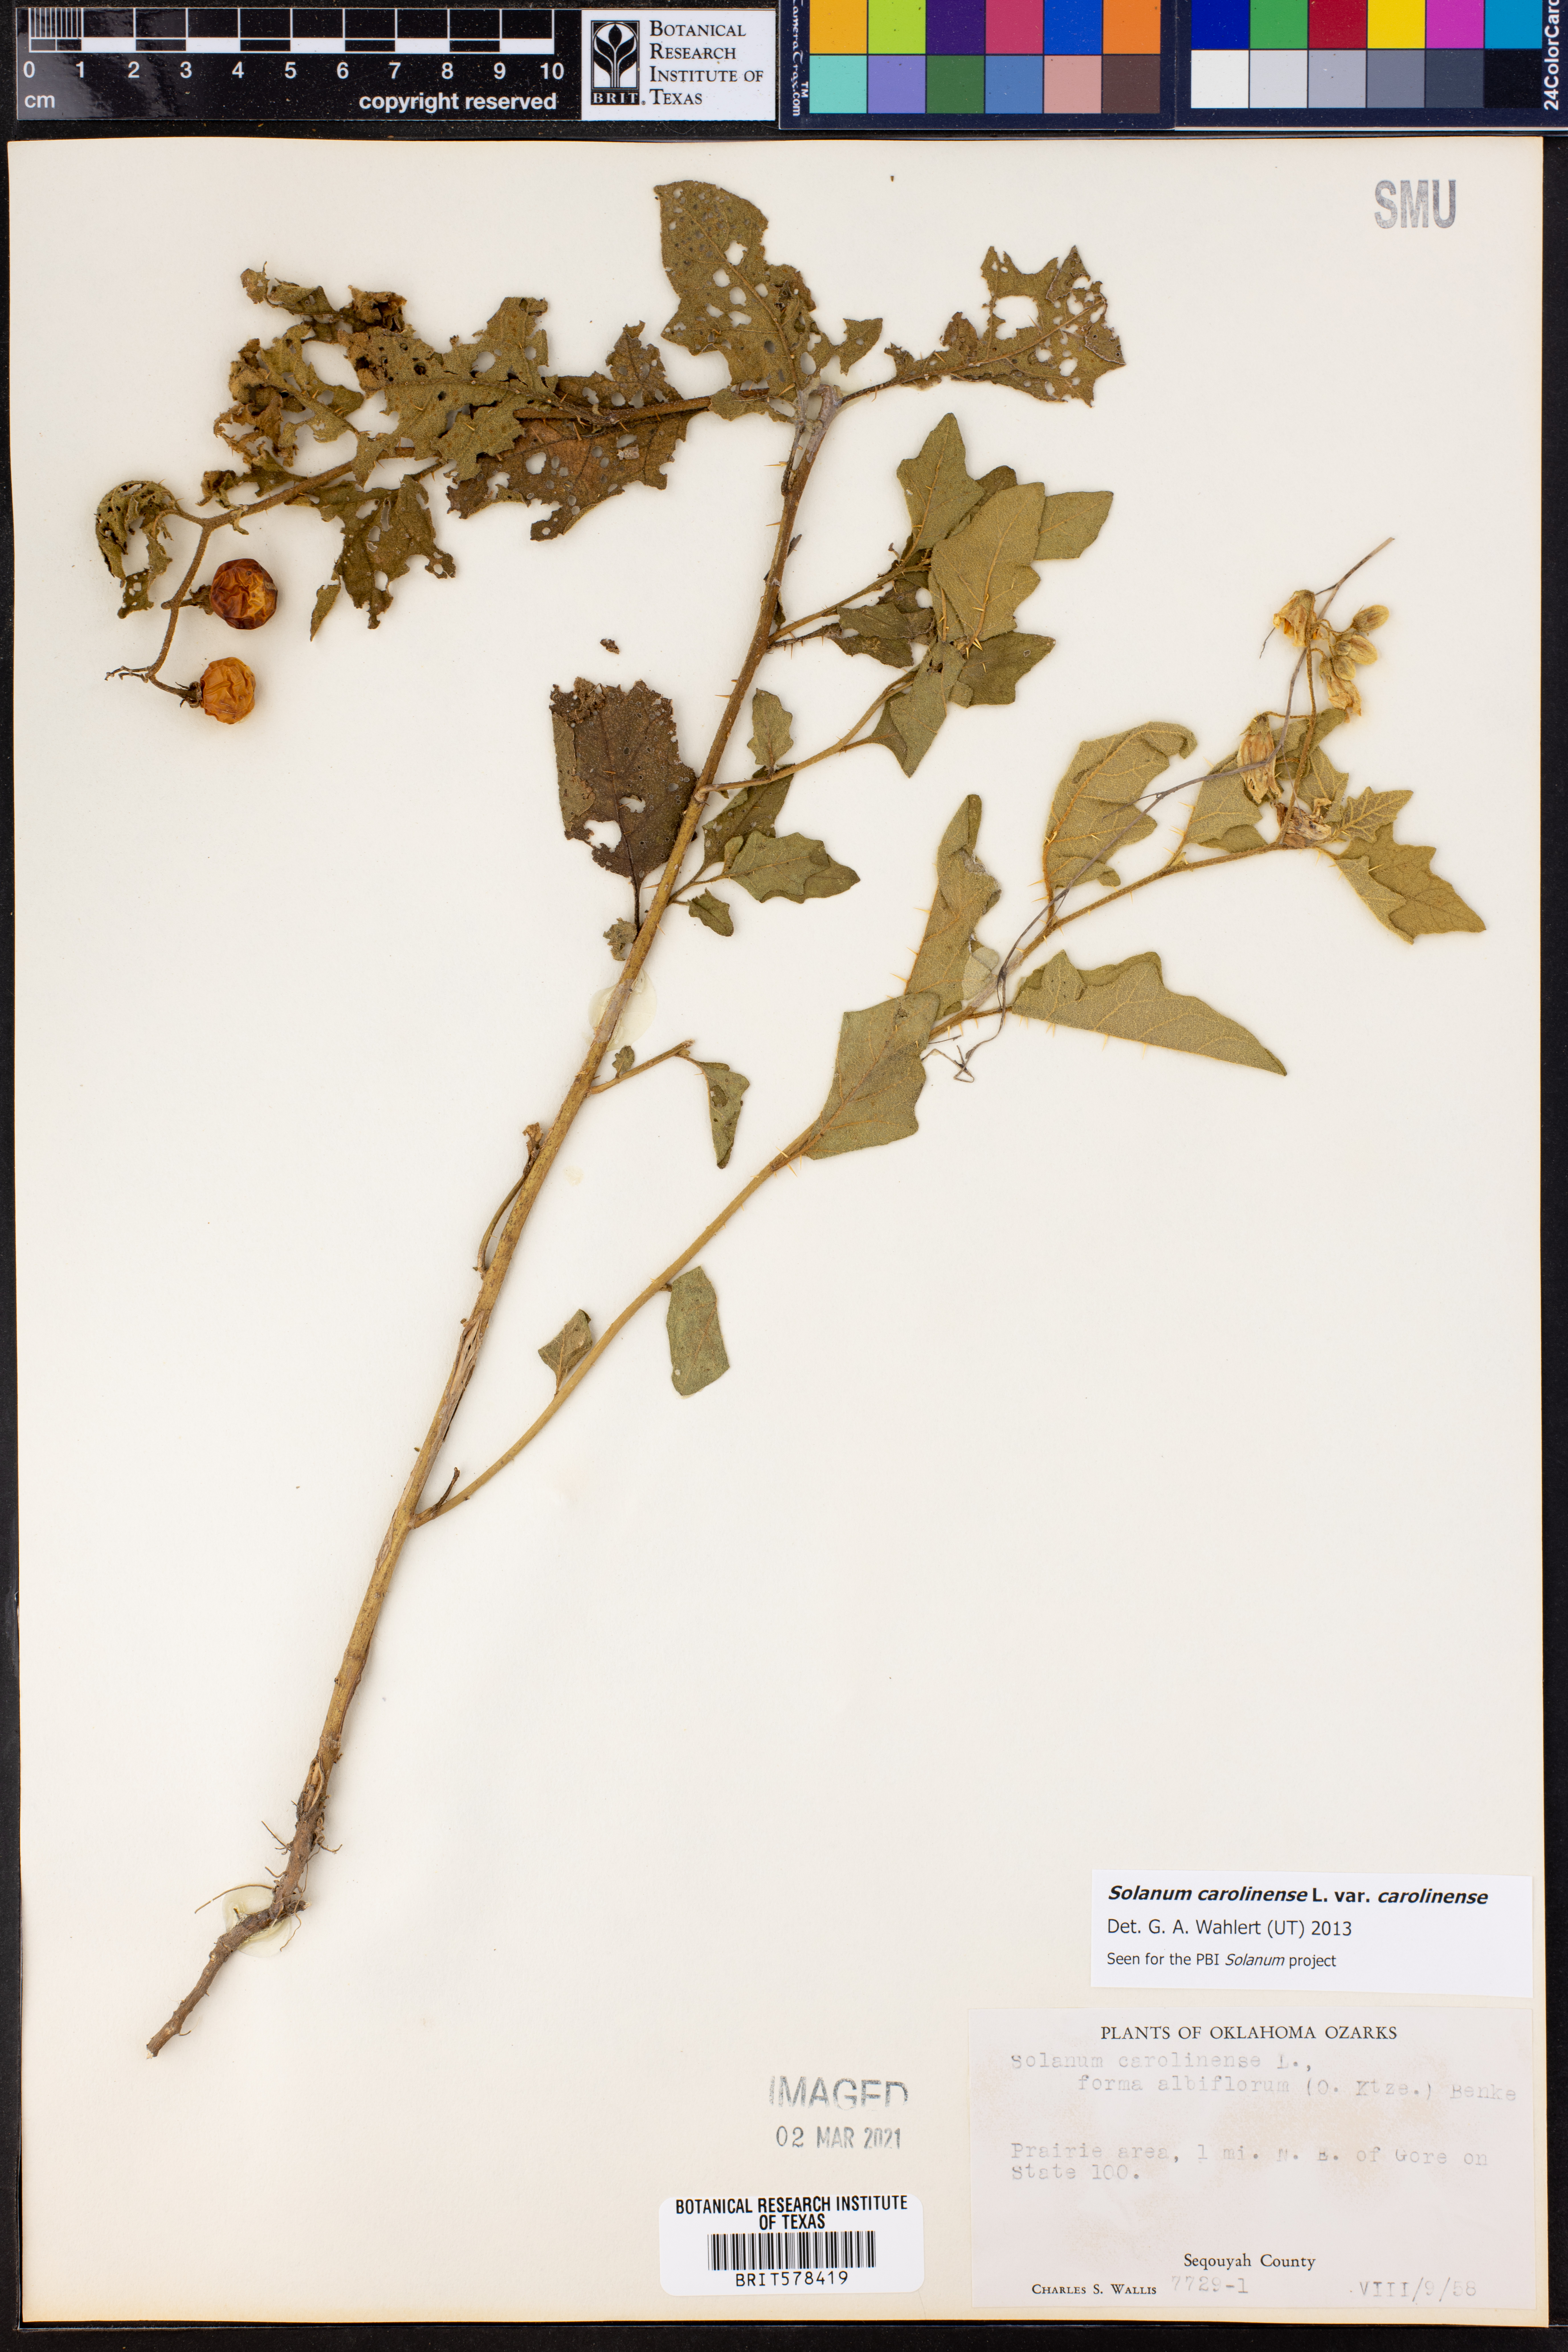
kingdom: Plantae
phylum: Tracheophyta
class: Magnoliopsida
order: Solanales
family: Solanaceae
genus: Solanum
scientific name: Solanum carolinense
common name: Horse-nettle
